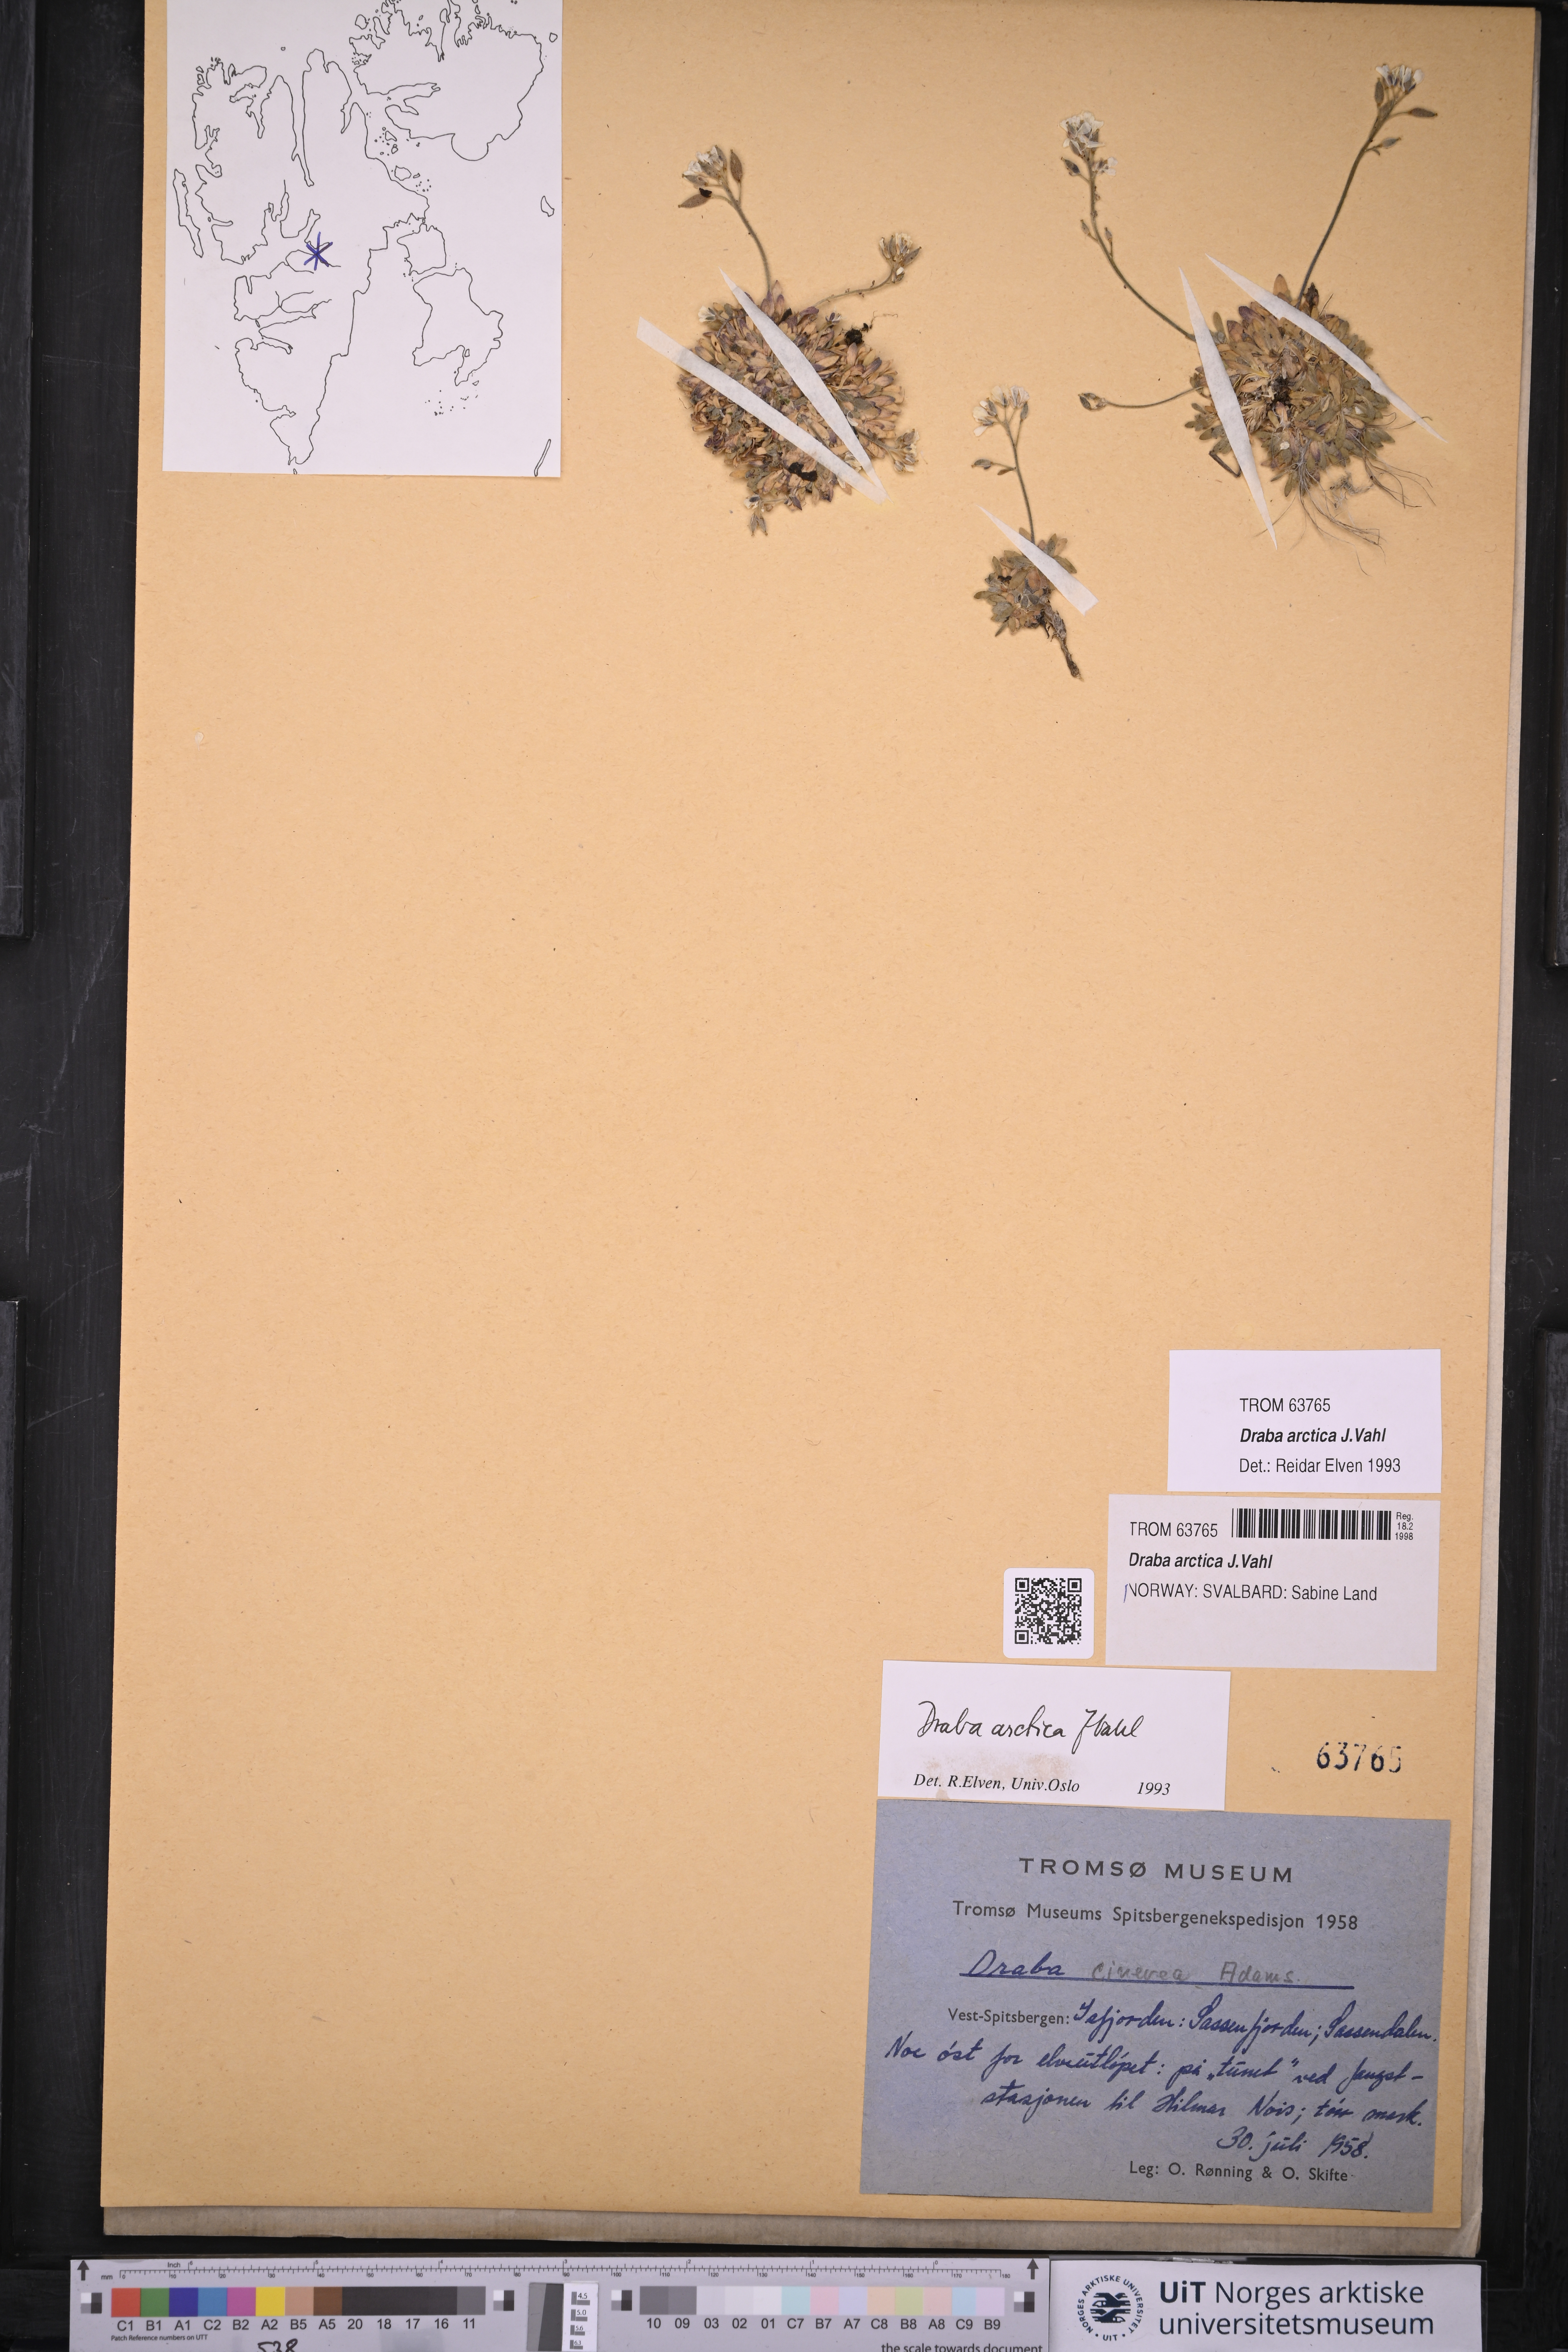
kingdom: Plantae
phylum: Tracheophyta
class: Magnoliopsida
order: Brassicales
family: Brassicaceae
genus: Draba
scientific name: Draba arctica
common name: Arctic draba
